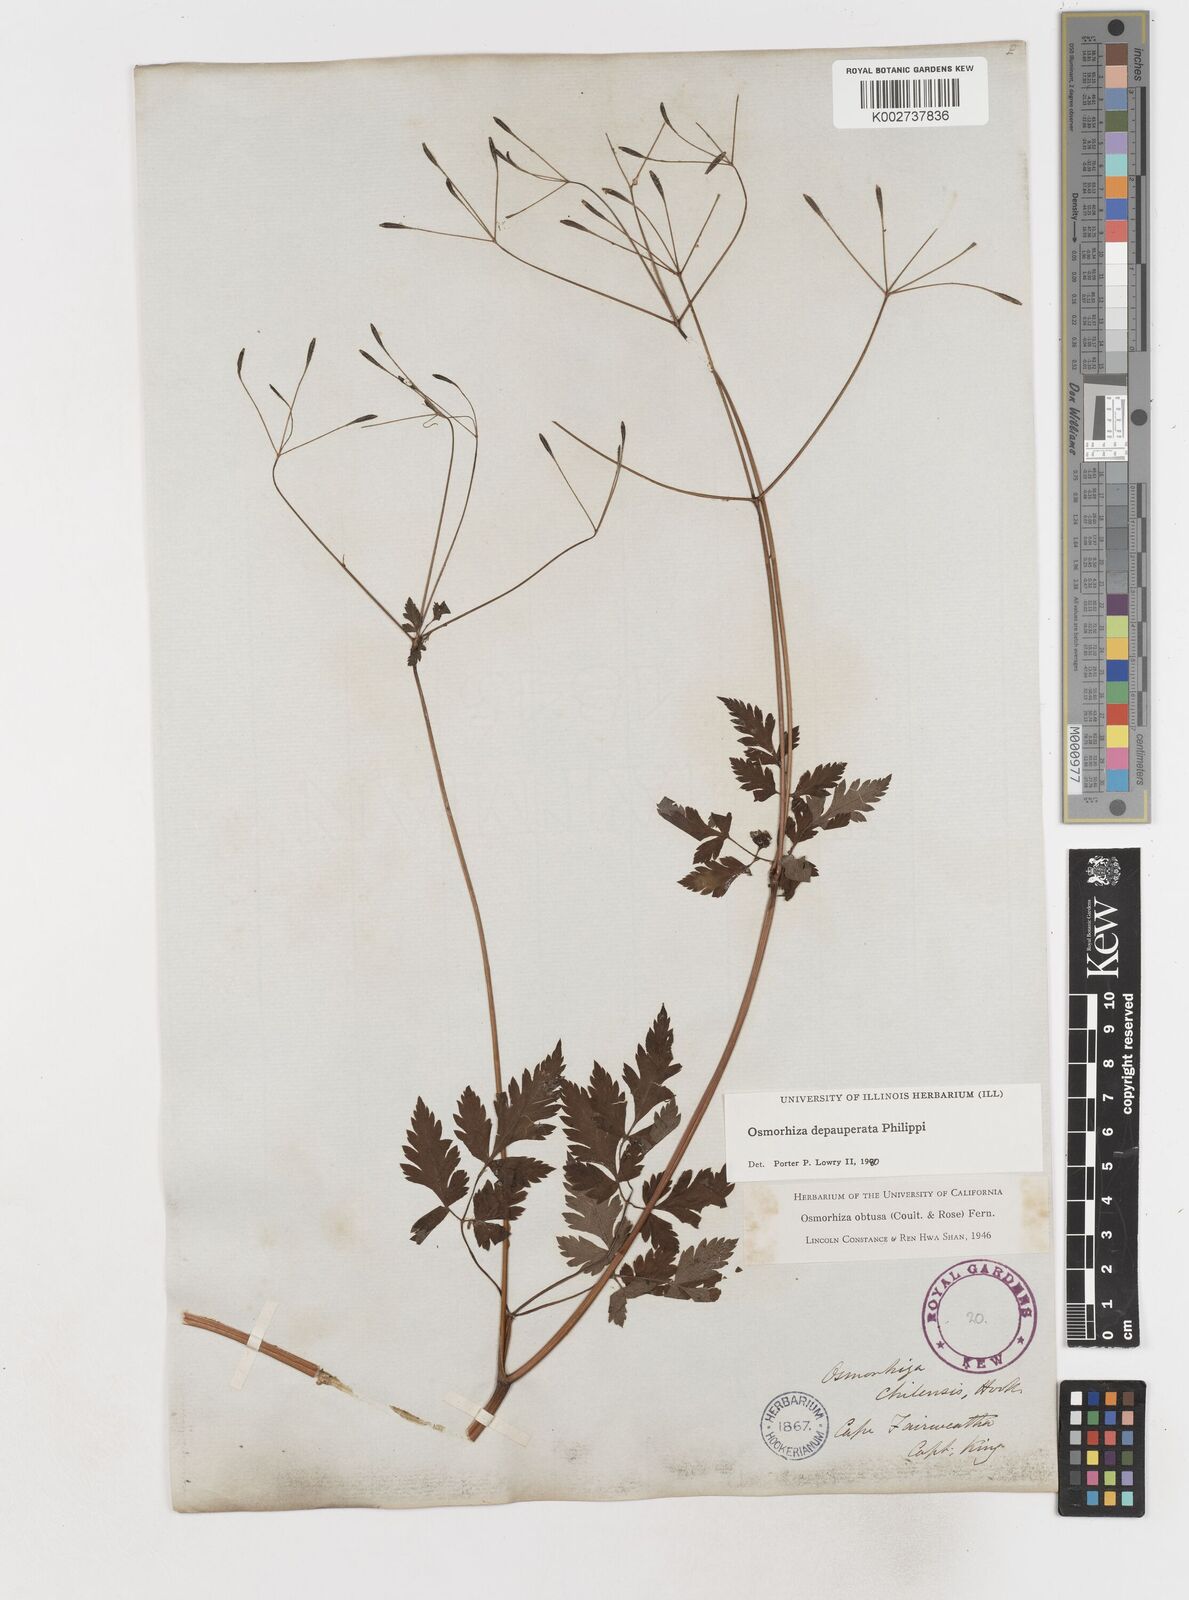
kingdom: Plantae
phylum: Tracheophyta
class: Magnoliopsida
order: Apiales
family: Apiaceae
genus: Osmorhiza
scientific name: Osmorhiza depauperata
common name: Blunt sweet cicely
